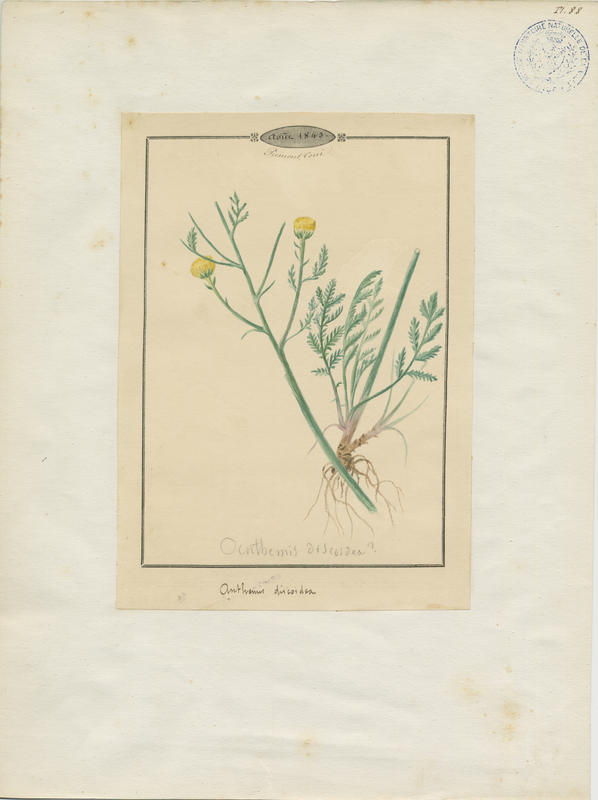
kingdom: Plantae
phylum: Tracheophyta
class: Magnoliopsida
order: Asterales
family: Asteraceae
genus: Cota
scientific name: Cota triumfetti
